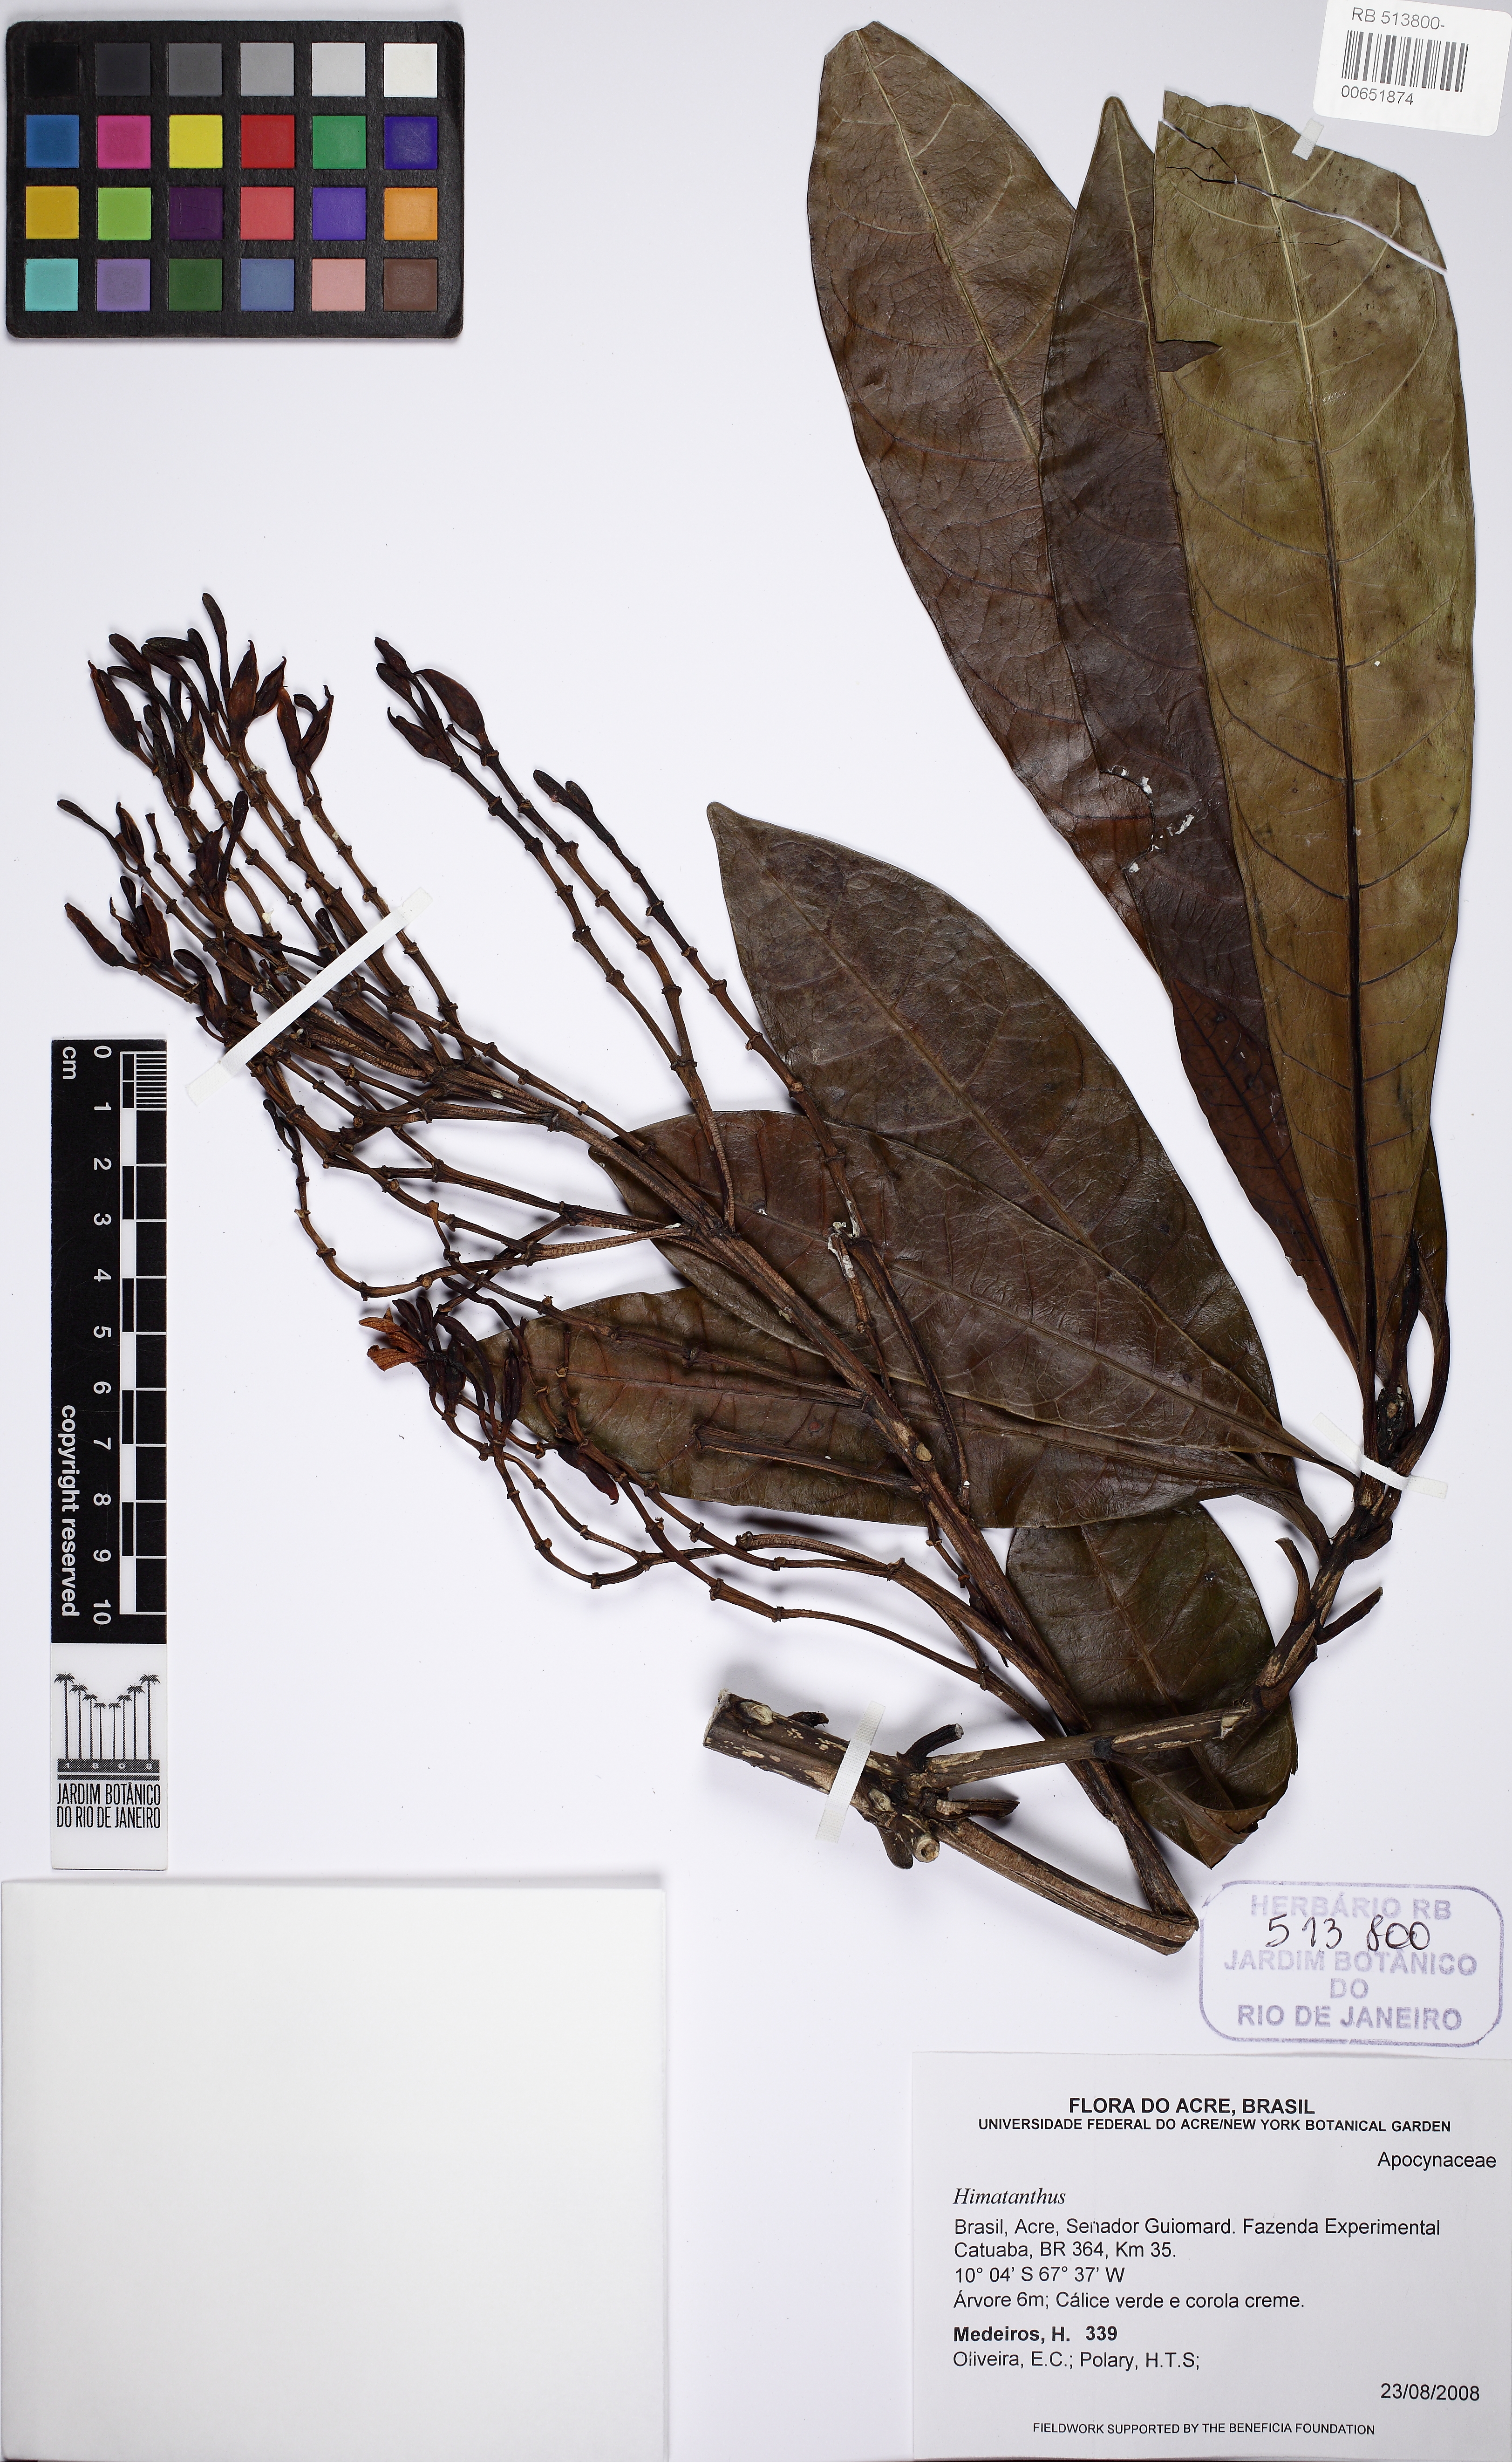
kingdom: Plantae
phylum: Tracheophyta
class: Magnoliopsida
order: Gentianales
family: Apocynaceae
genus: Himatanthus
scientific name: Himatanthus
